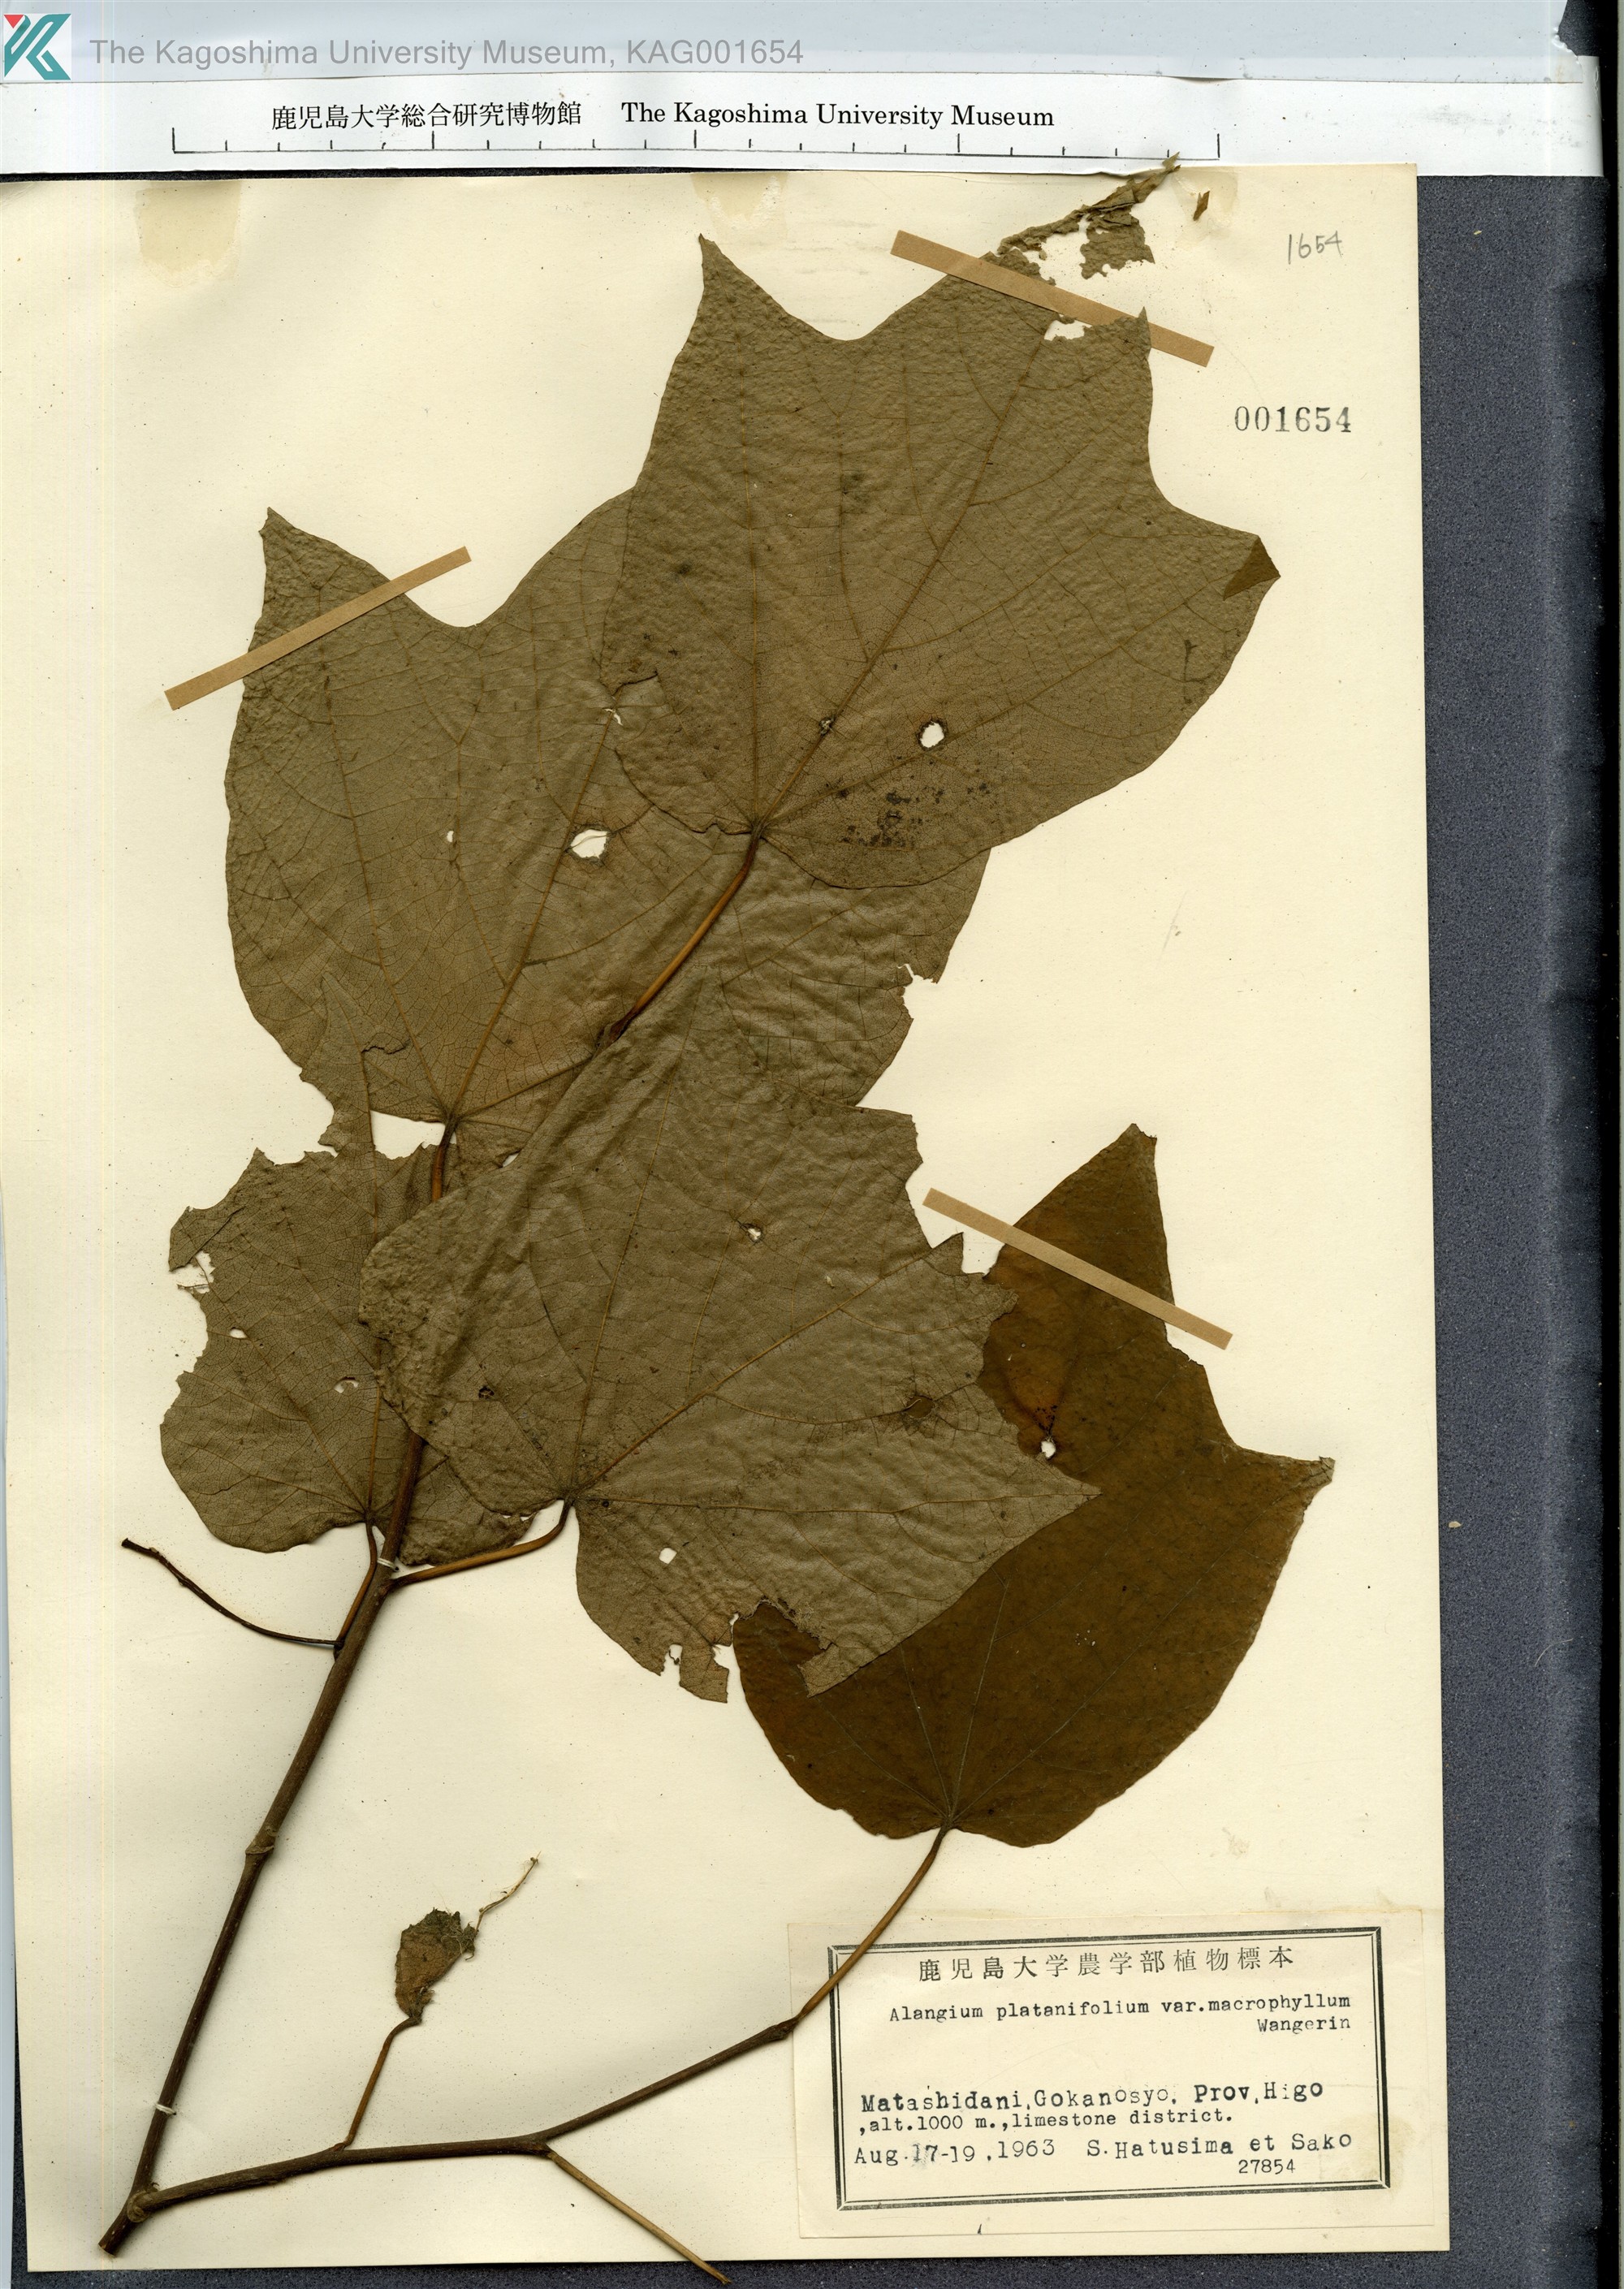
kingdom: Plantae
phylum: Tracheophyta
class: Magnoliopsida
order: Cornales
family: Cornaceae
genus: Alangium
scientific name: Alangium platanifolium
